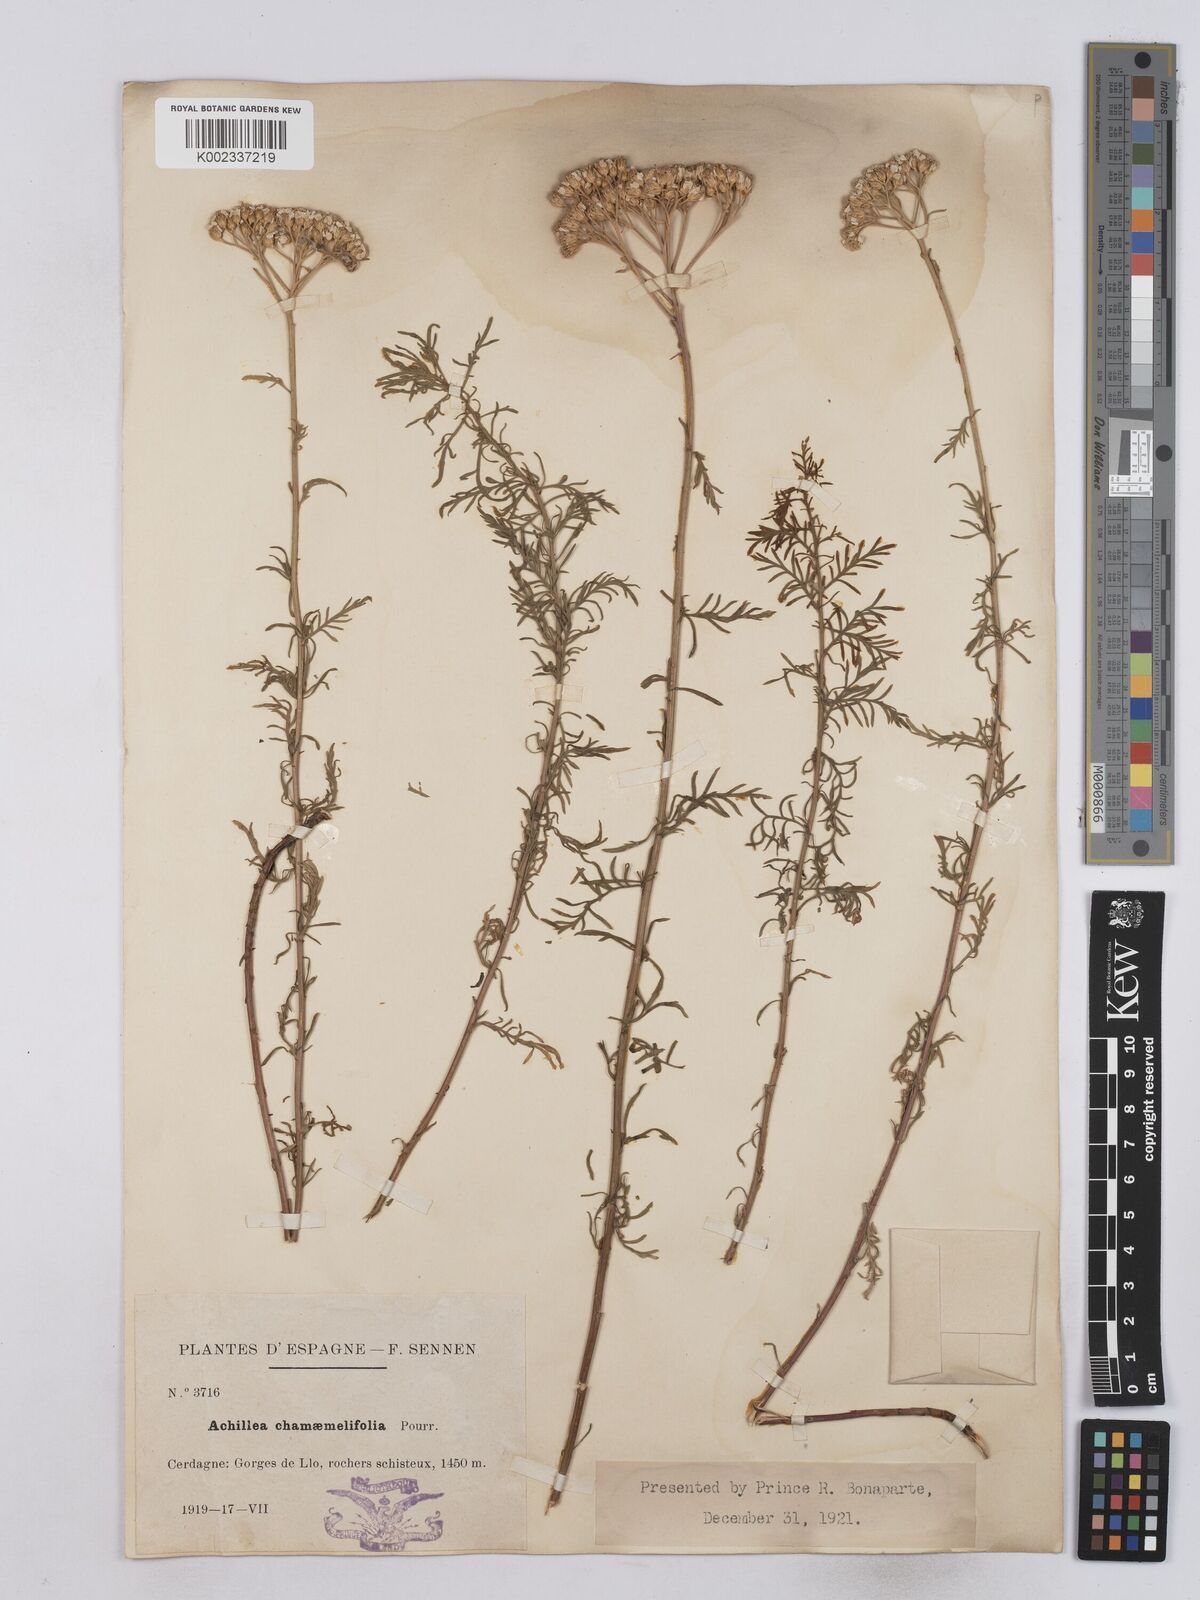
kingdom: Plantae
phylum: Tracheophyta
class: Magnoliopsida
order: Asterales
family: Asteraceae
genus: Achillea
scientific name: Achillea chamaemelifolia
